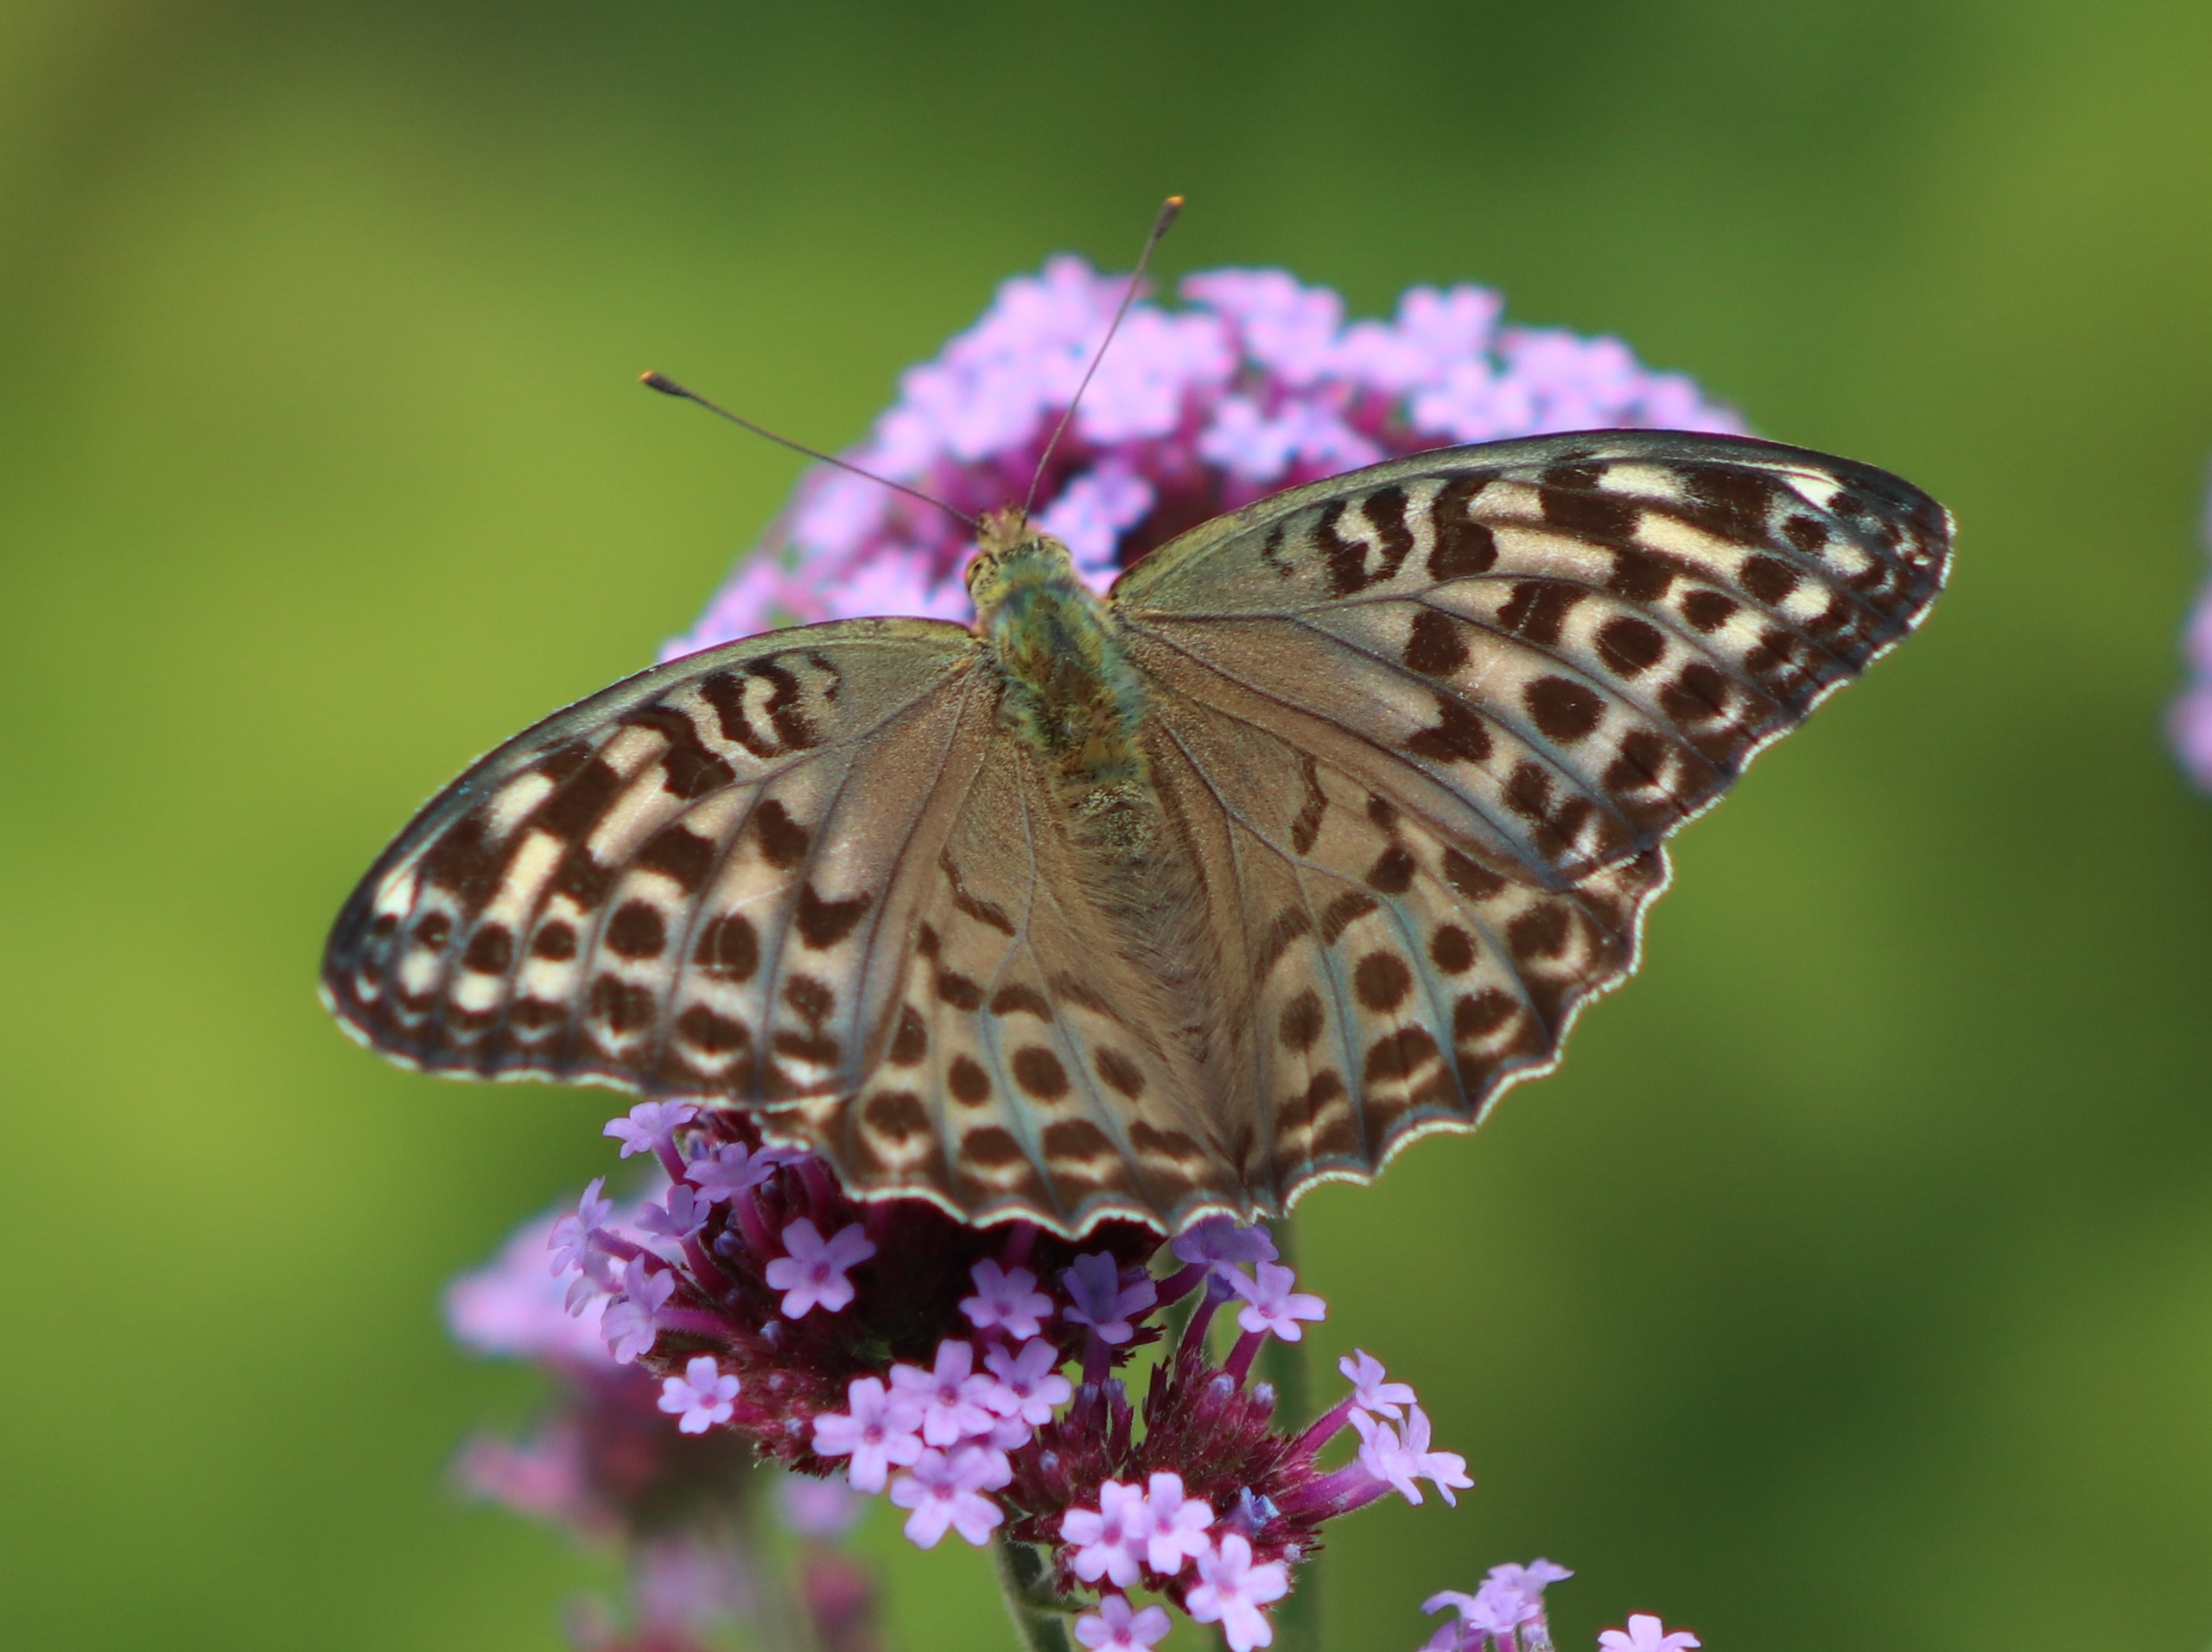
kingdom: Animalia
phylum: Arthropoda
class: Insecta
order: Lepidoptera
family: Nymphalidae
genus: Argynnis
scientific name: Argynnis paphia
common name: Kejserkåbe
